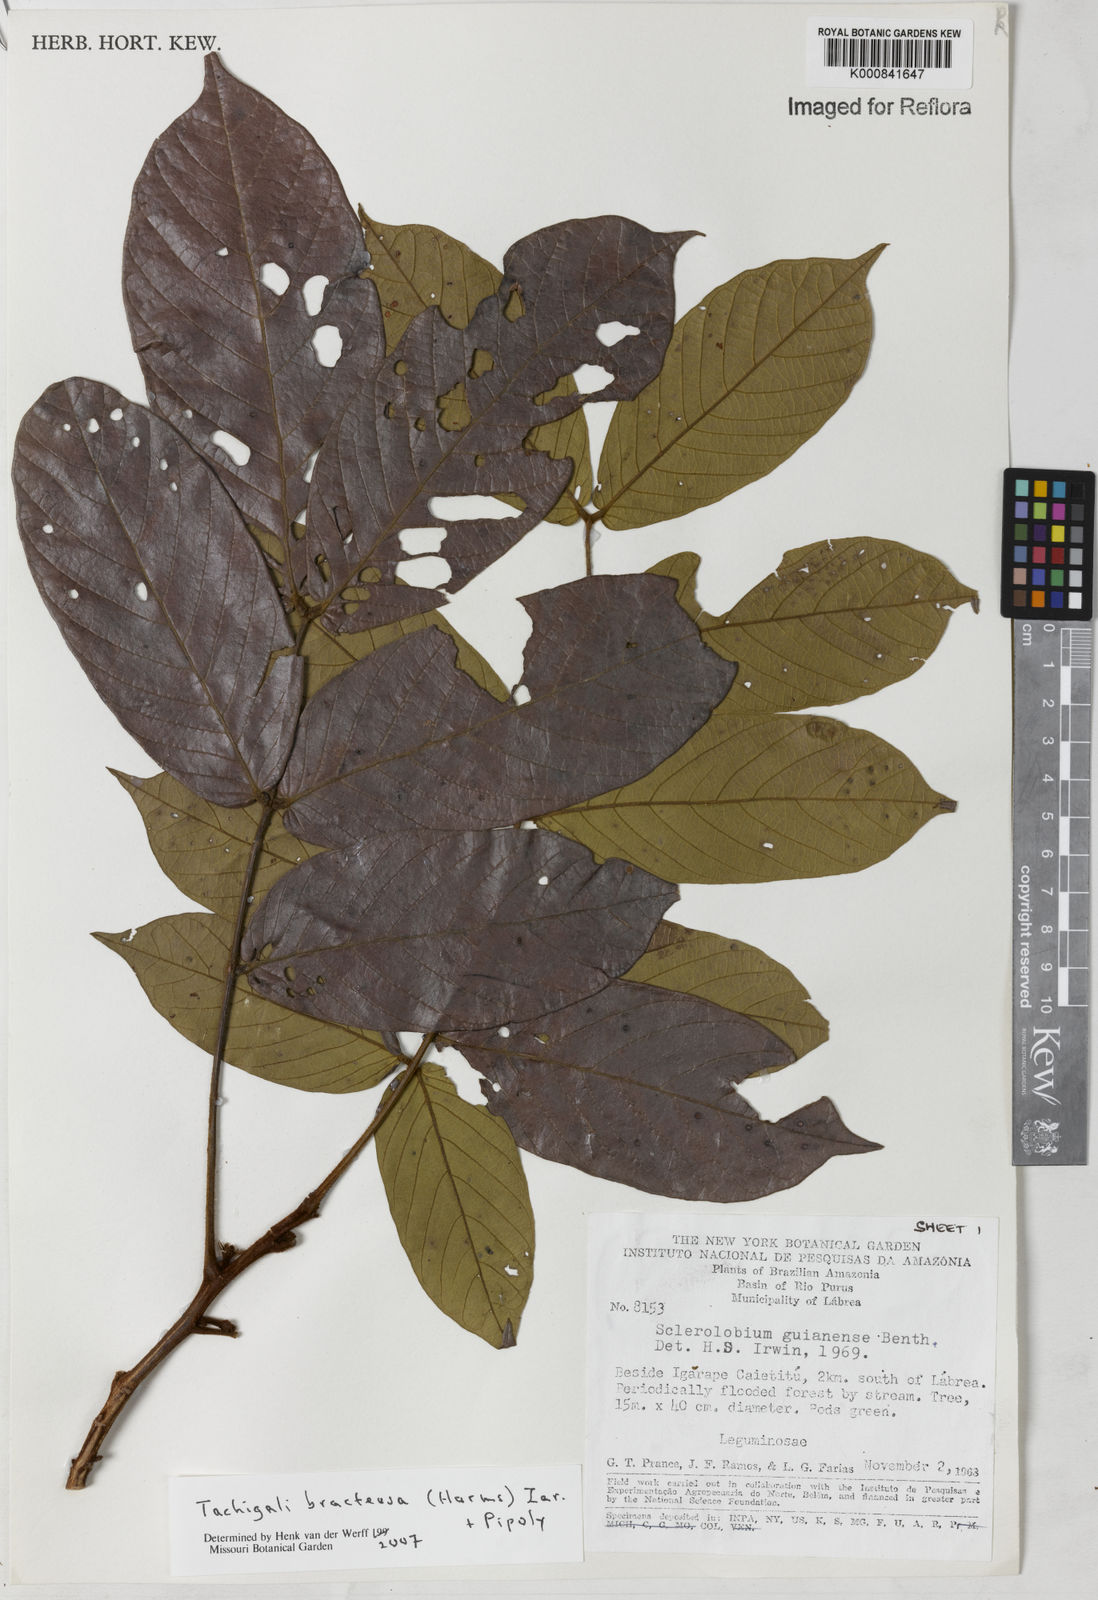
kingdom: Plantae
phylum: Tracheophyta
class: Magnoliopsida
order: Fabales
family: Fabaceae
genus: Tachigali
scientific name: Tachigali bracteosa
